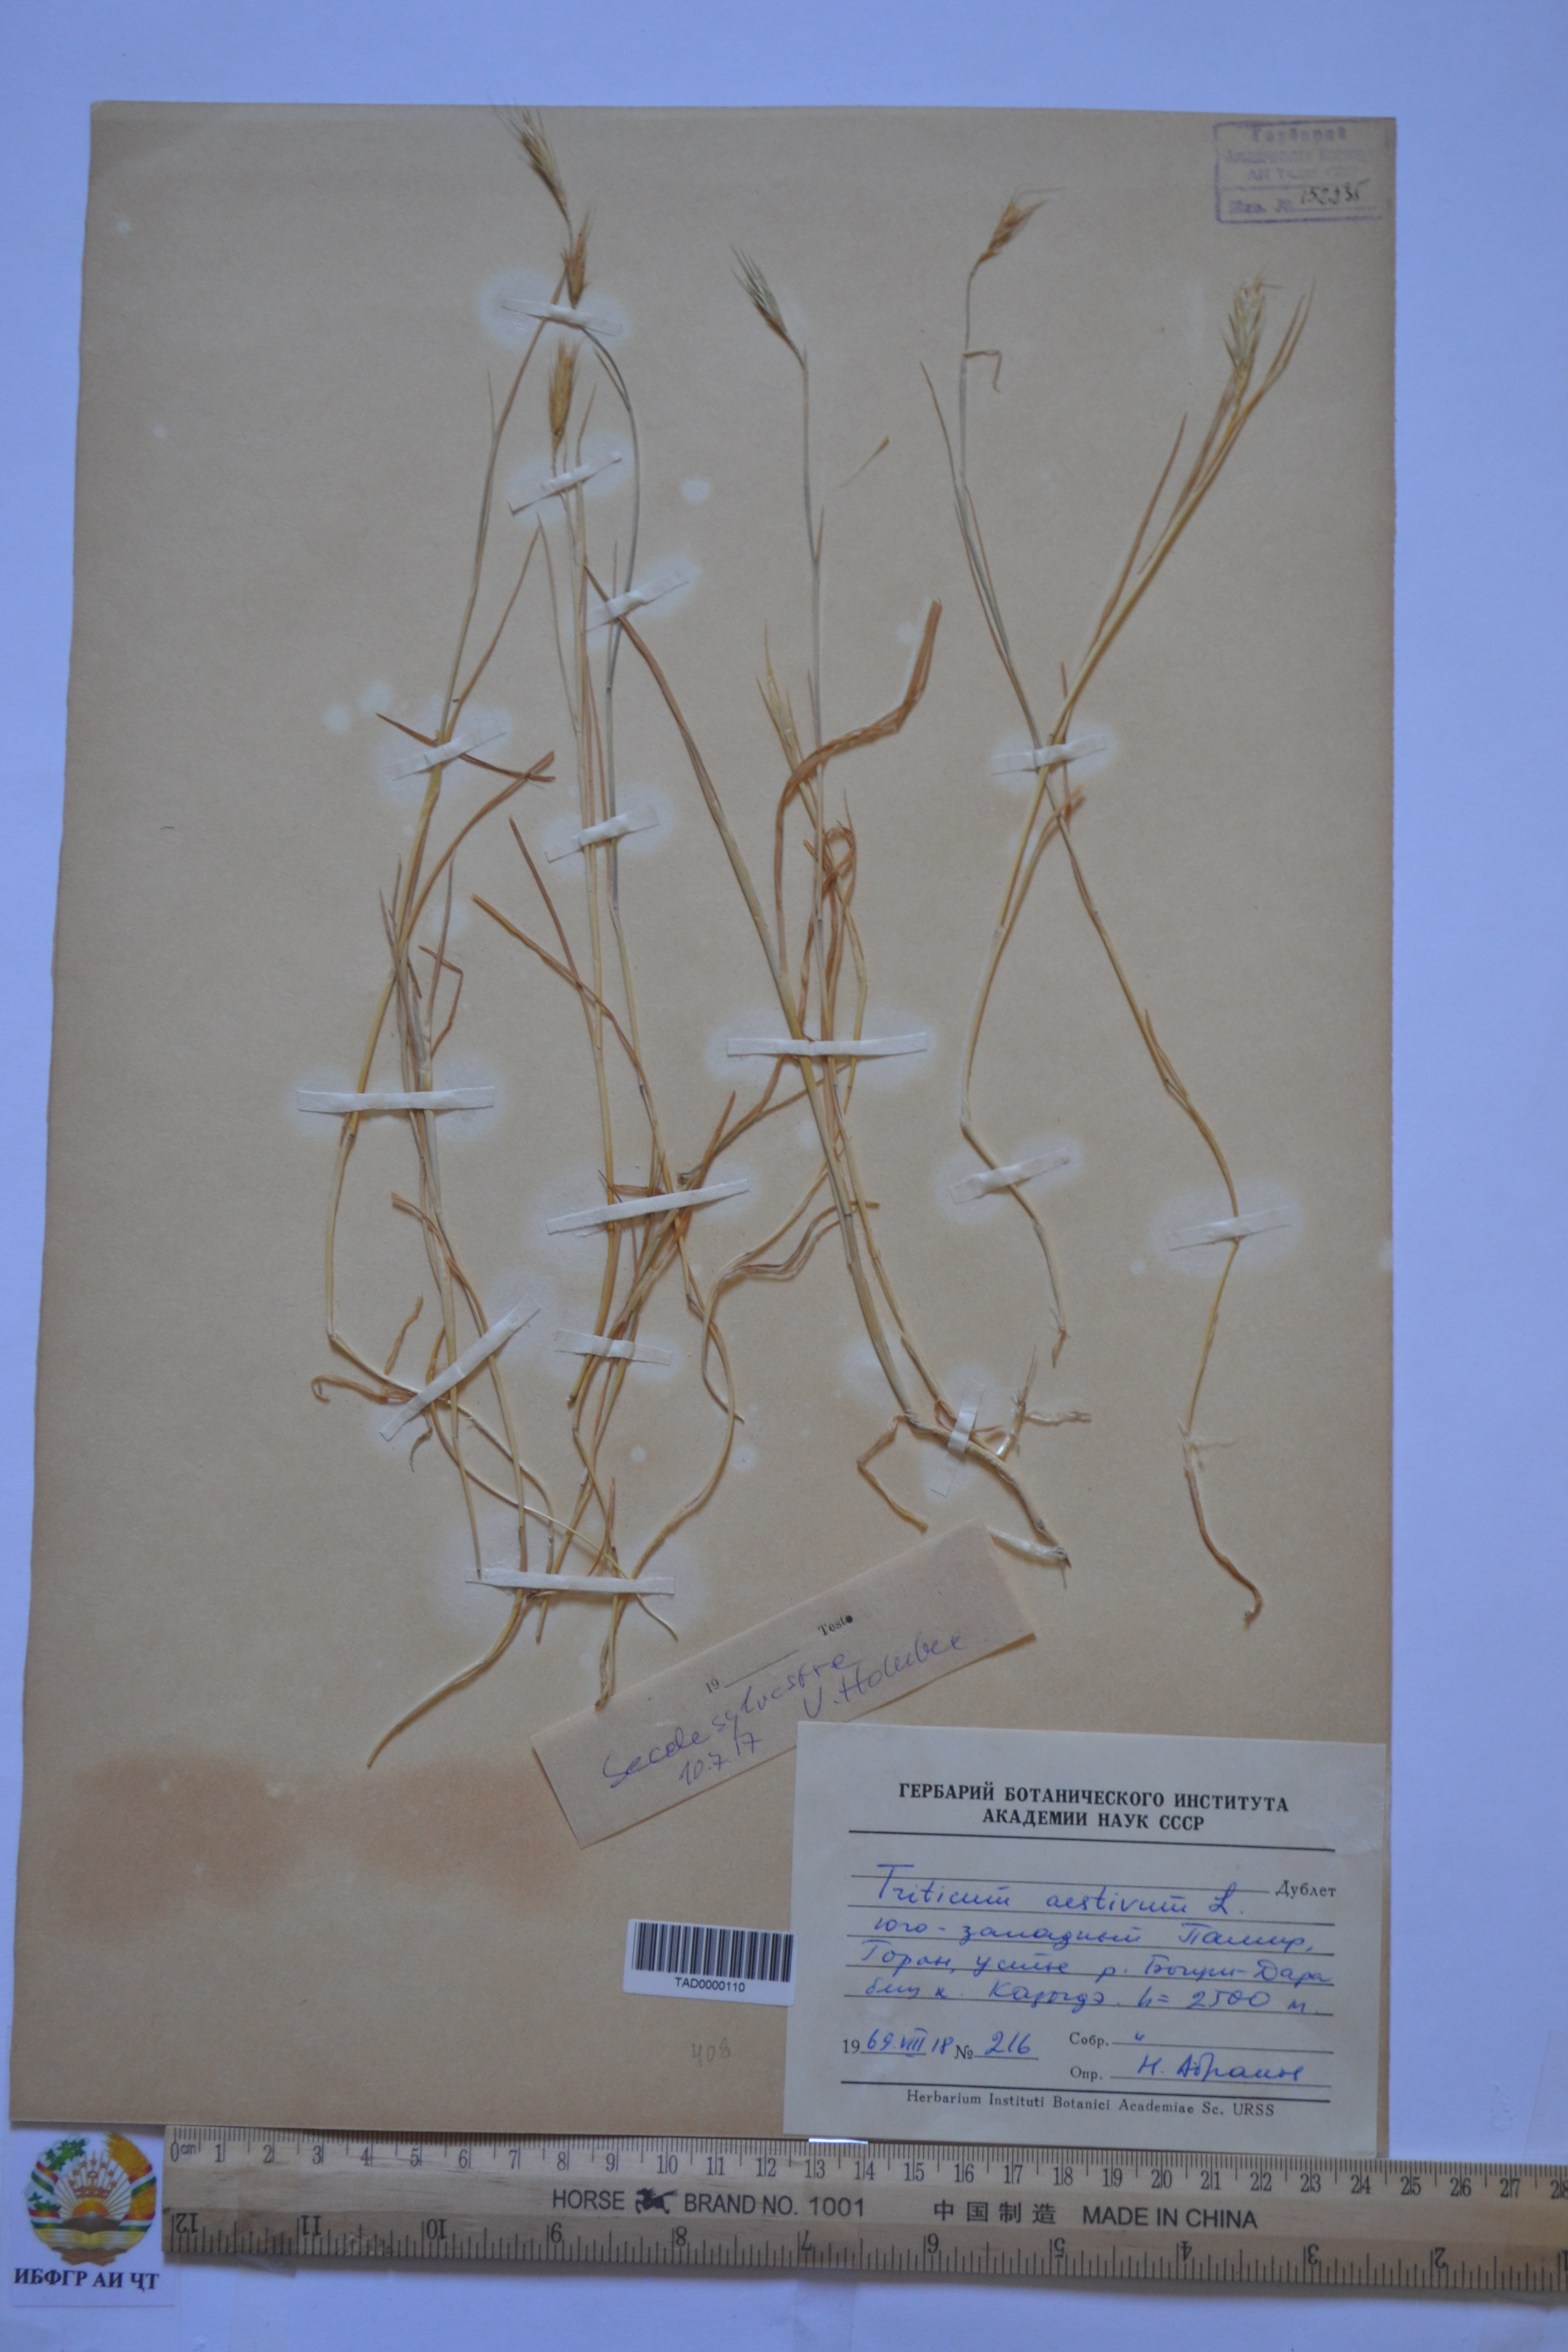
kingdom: Plantae
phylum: Tracheophyta
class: Liliopsida
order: Poales
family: Poaceae
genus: Triticum
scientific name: Triticum aestivum
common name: Common wheat
